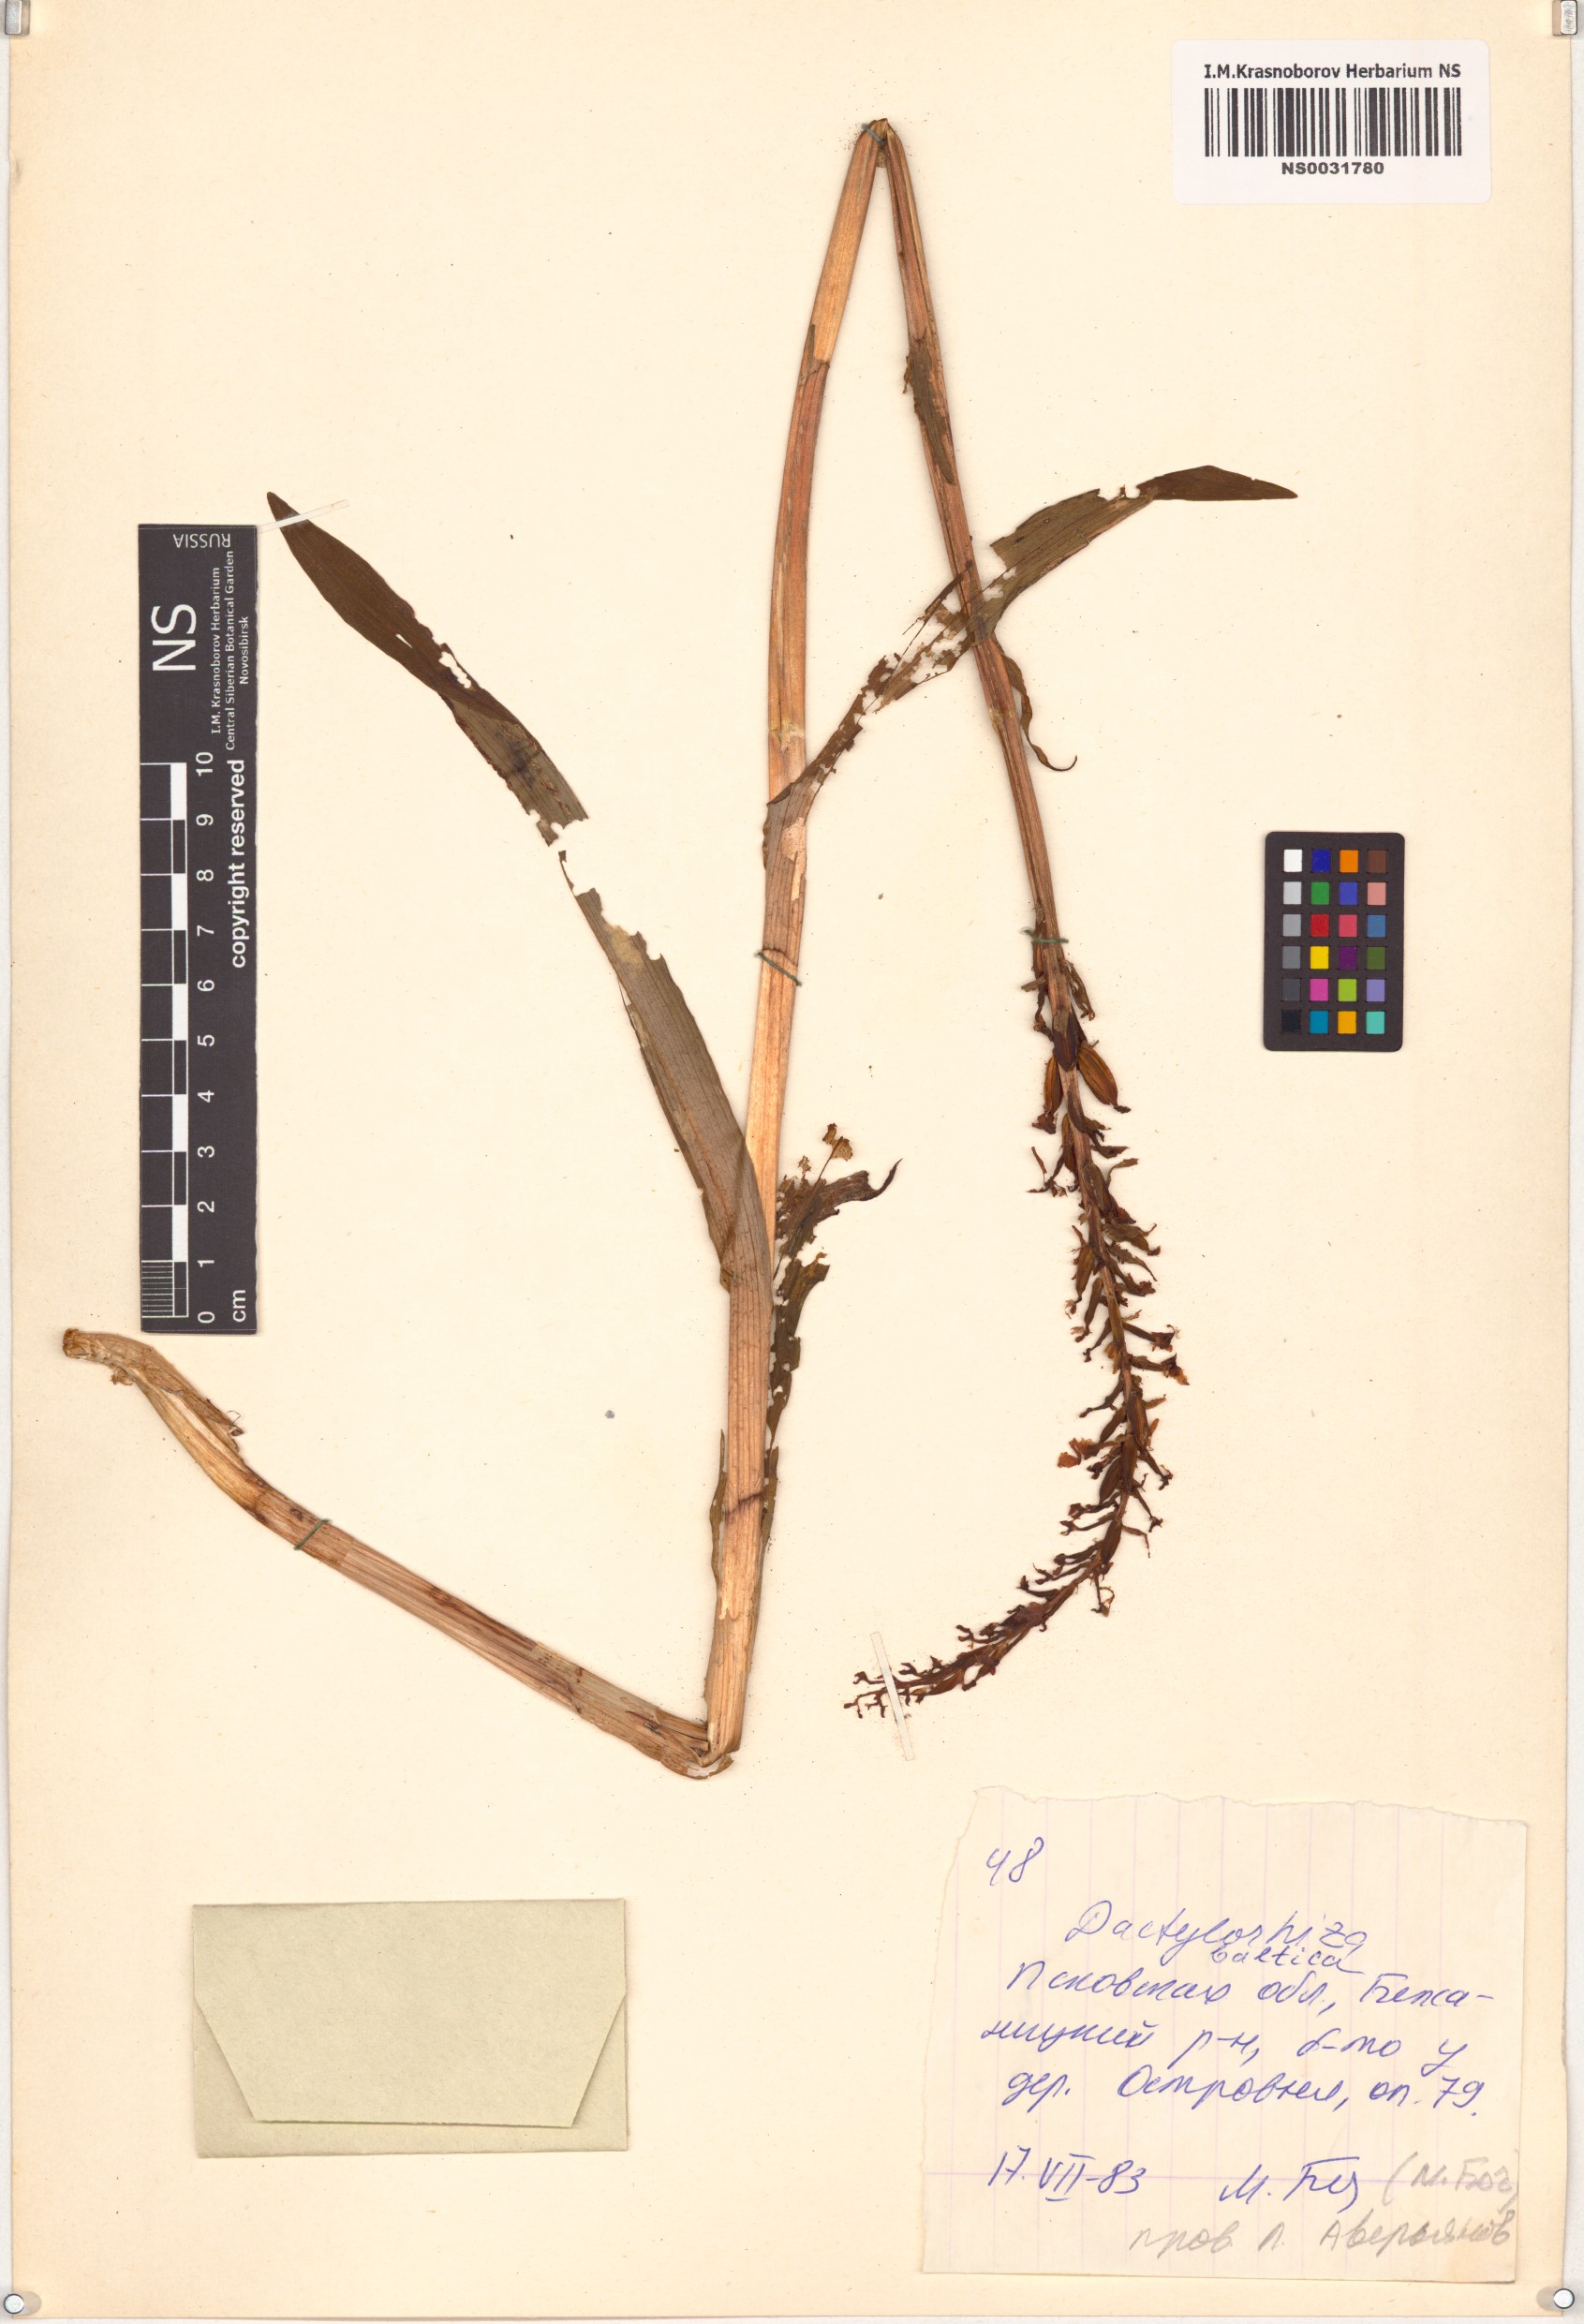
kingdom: Plantae
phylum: Tracheophyta
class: Liliopsida
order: Asparagales
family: Orchidaceae
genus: Dactylorhiza
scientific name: Dactylorhiza majalis
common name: Marsh orchid
